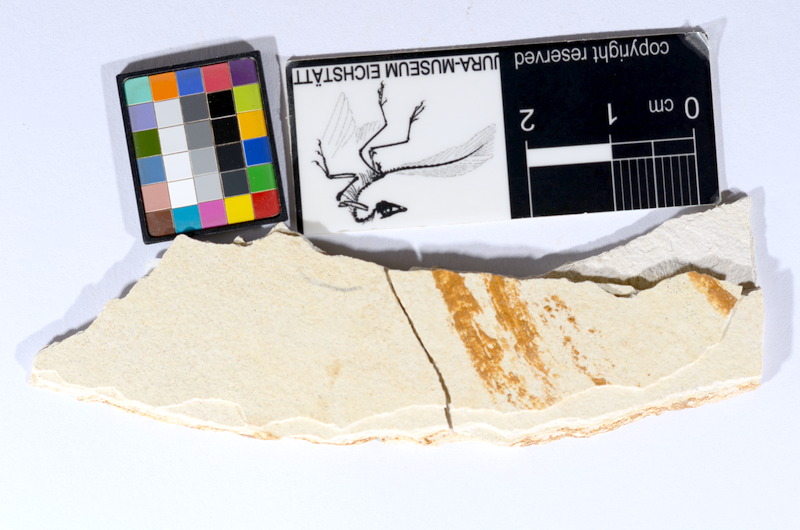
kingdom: Animalia
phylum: Chordata
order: Salmoniformes
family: Orthogonikleithridae
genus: Orthogonikleithrus
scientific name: Orthogonikleithrus hoelli
